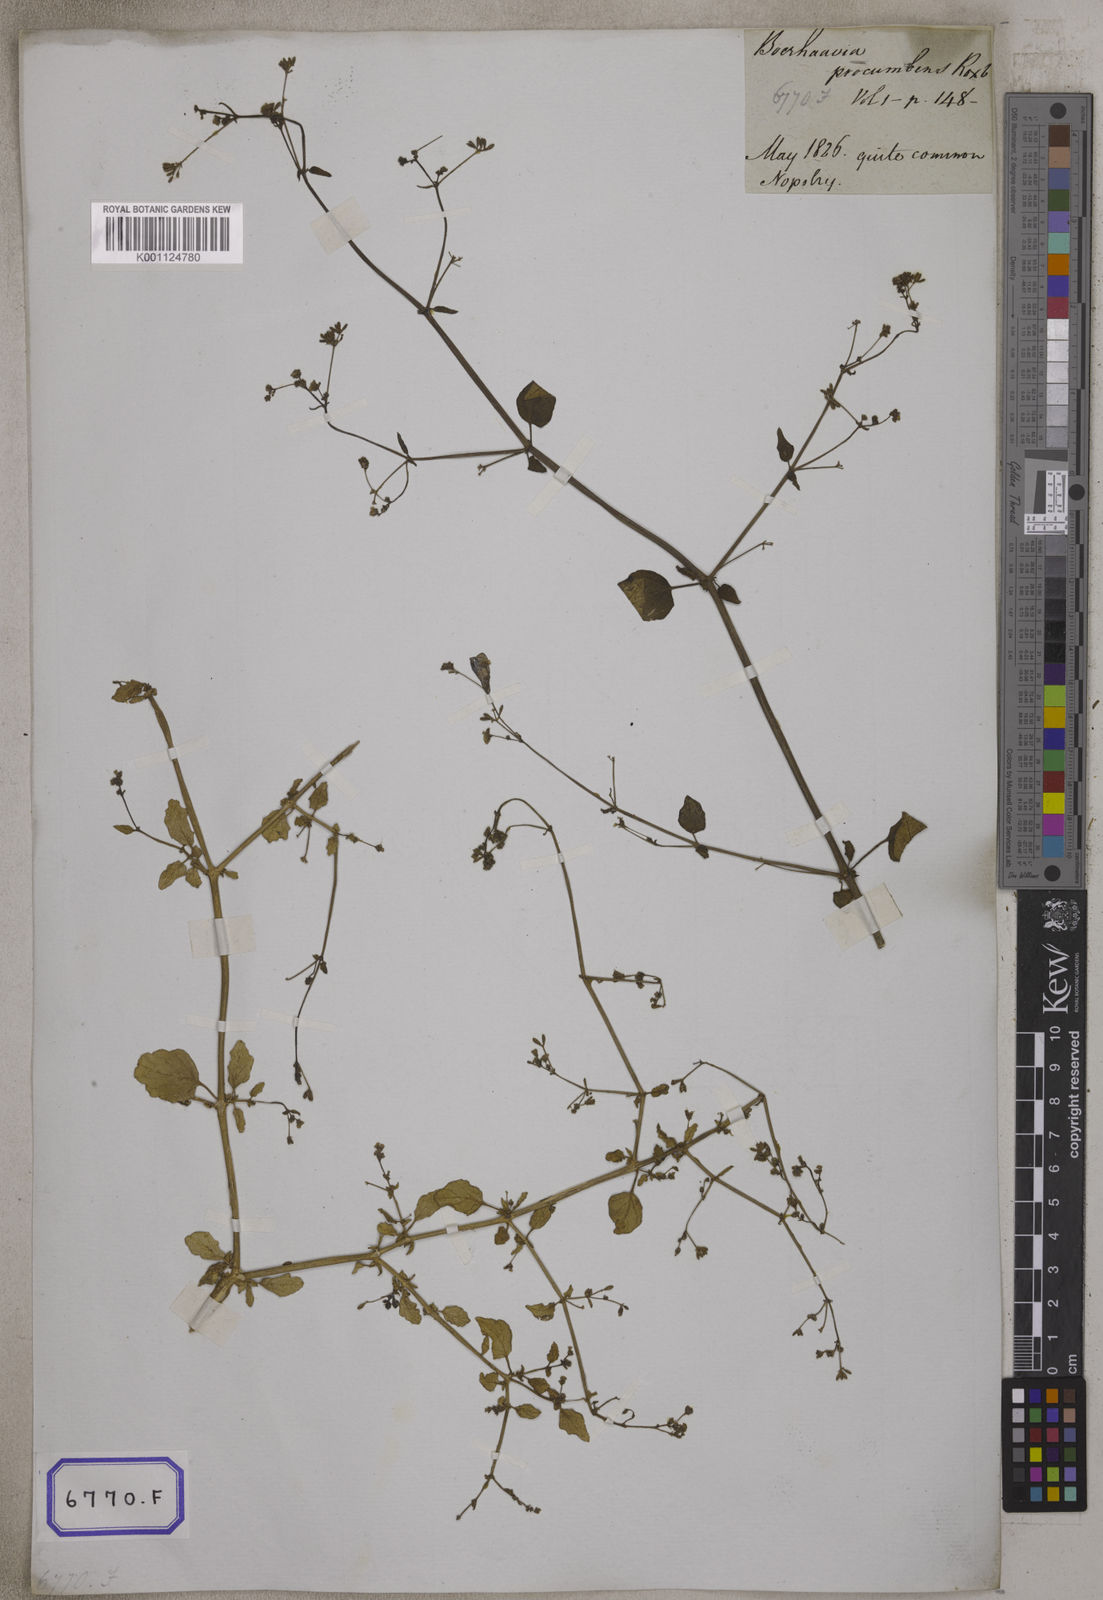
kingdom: Plantae
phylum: Tracheophyta
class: Magnoliopsida
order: Caryophyllales
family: Nyctaginaceae
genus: Boerhavia
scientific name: Boerhavia diffusa
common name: Red spiderling
